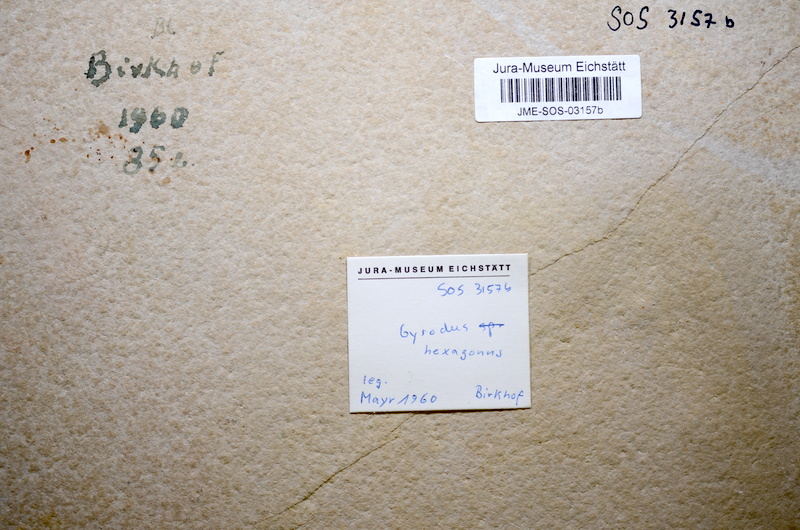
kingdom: Animalia
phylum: Chordata
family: Gyrodontidae
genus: Gyrodus
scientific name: Gyrodus hexagonus
